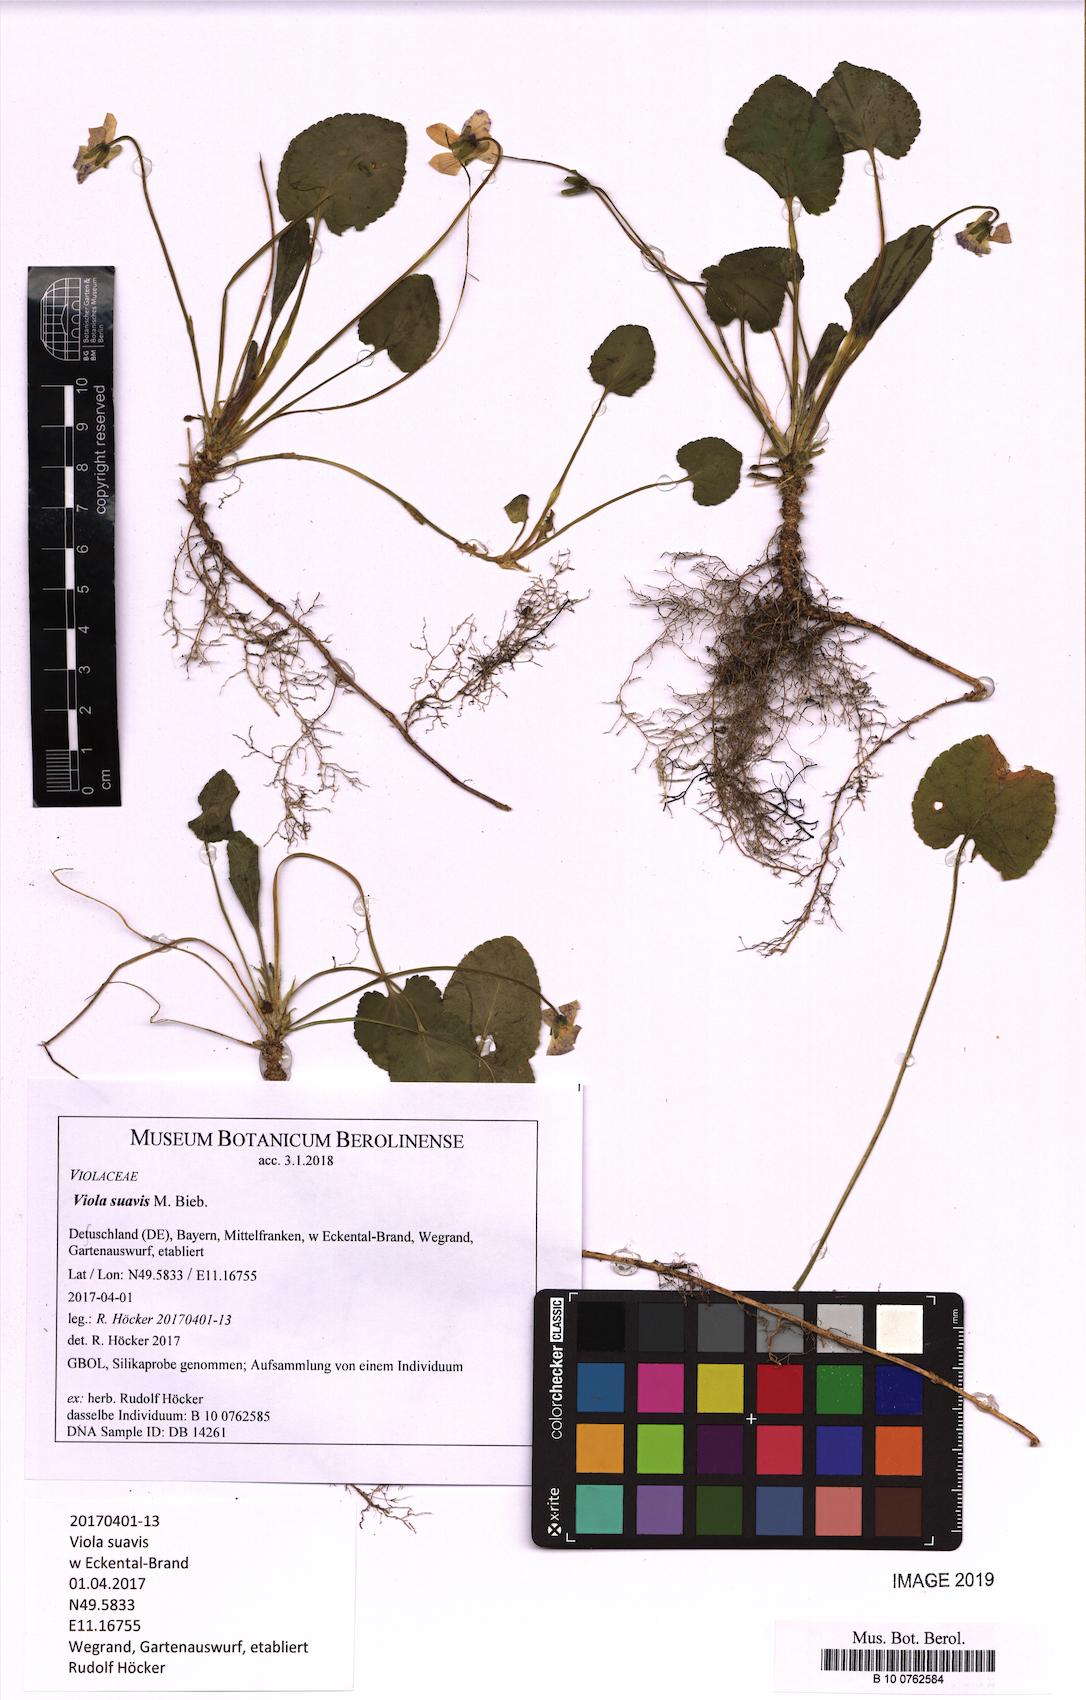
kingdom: Plantae
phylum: Tracheophyta
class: Magnoliopsida
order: Malpighiales
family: Violaceae
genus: Viola
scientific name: Viola suavis
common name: Russian violet
